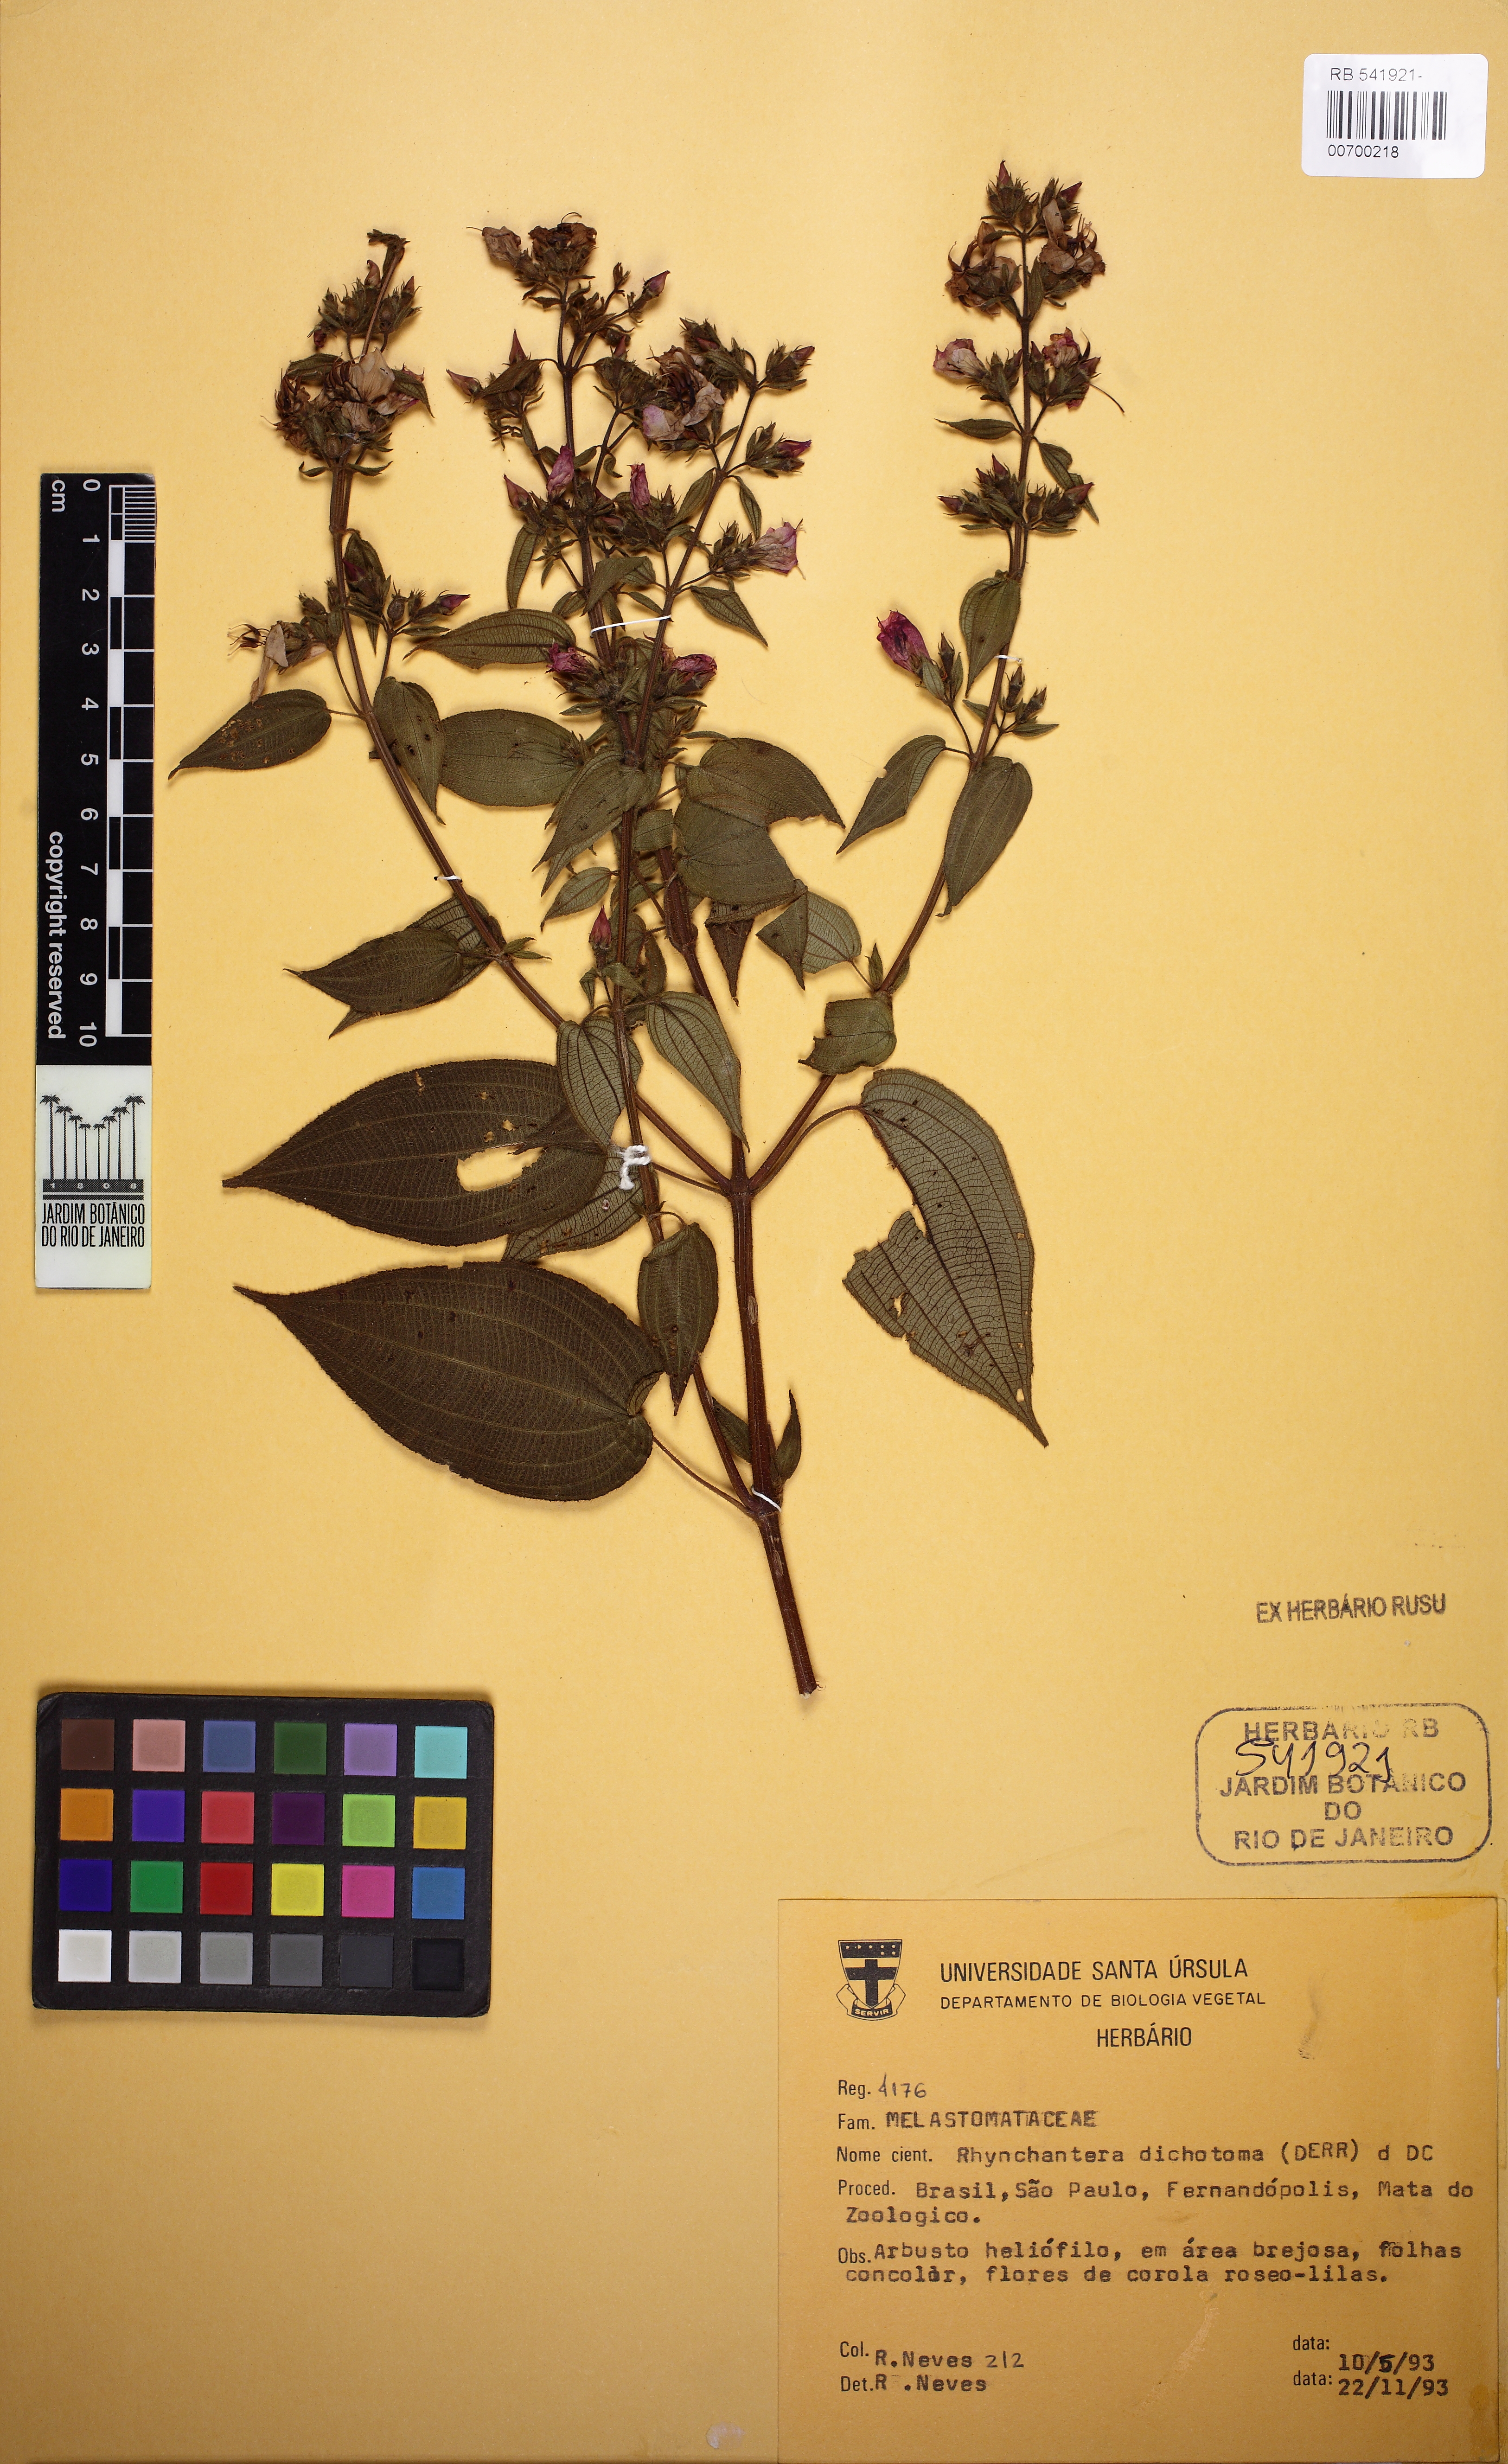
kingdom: Plantae
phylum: Tracheophyta
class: Magnoliopsida
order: Myrtales
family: Melastomataceae
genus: Rhynchanthera
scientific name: Rhynchanthera dichotoma
